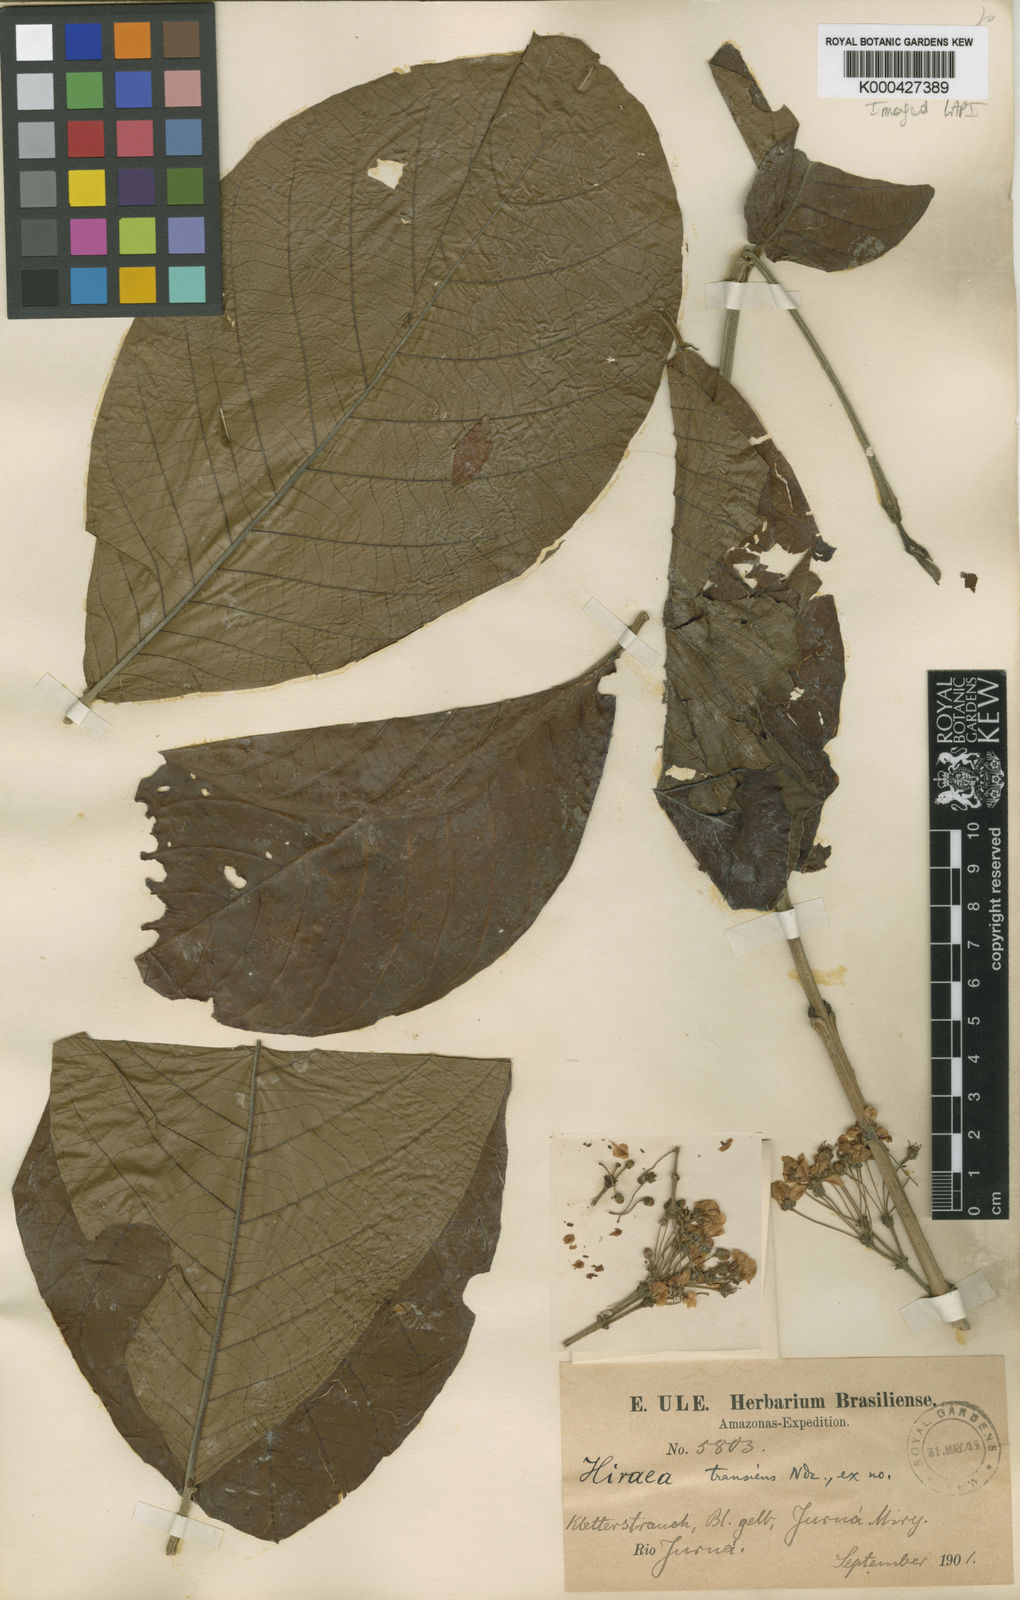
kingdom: Plantae
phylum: Tracheophyta
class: Magnoliopsida
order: Malpighiales
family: Malpighiaceae
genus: Hiraea
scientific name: Hiraea transiens
